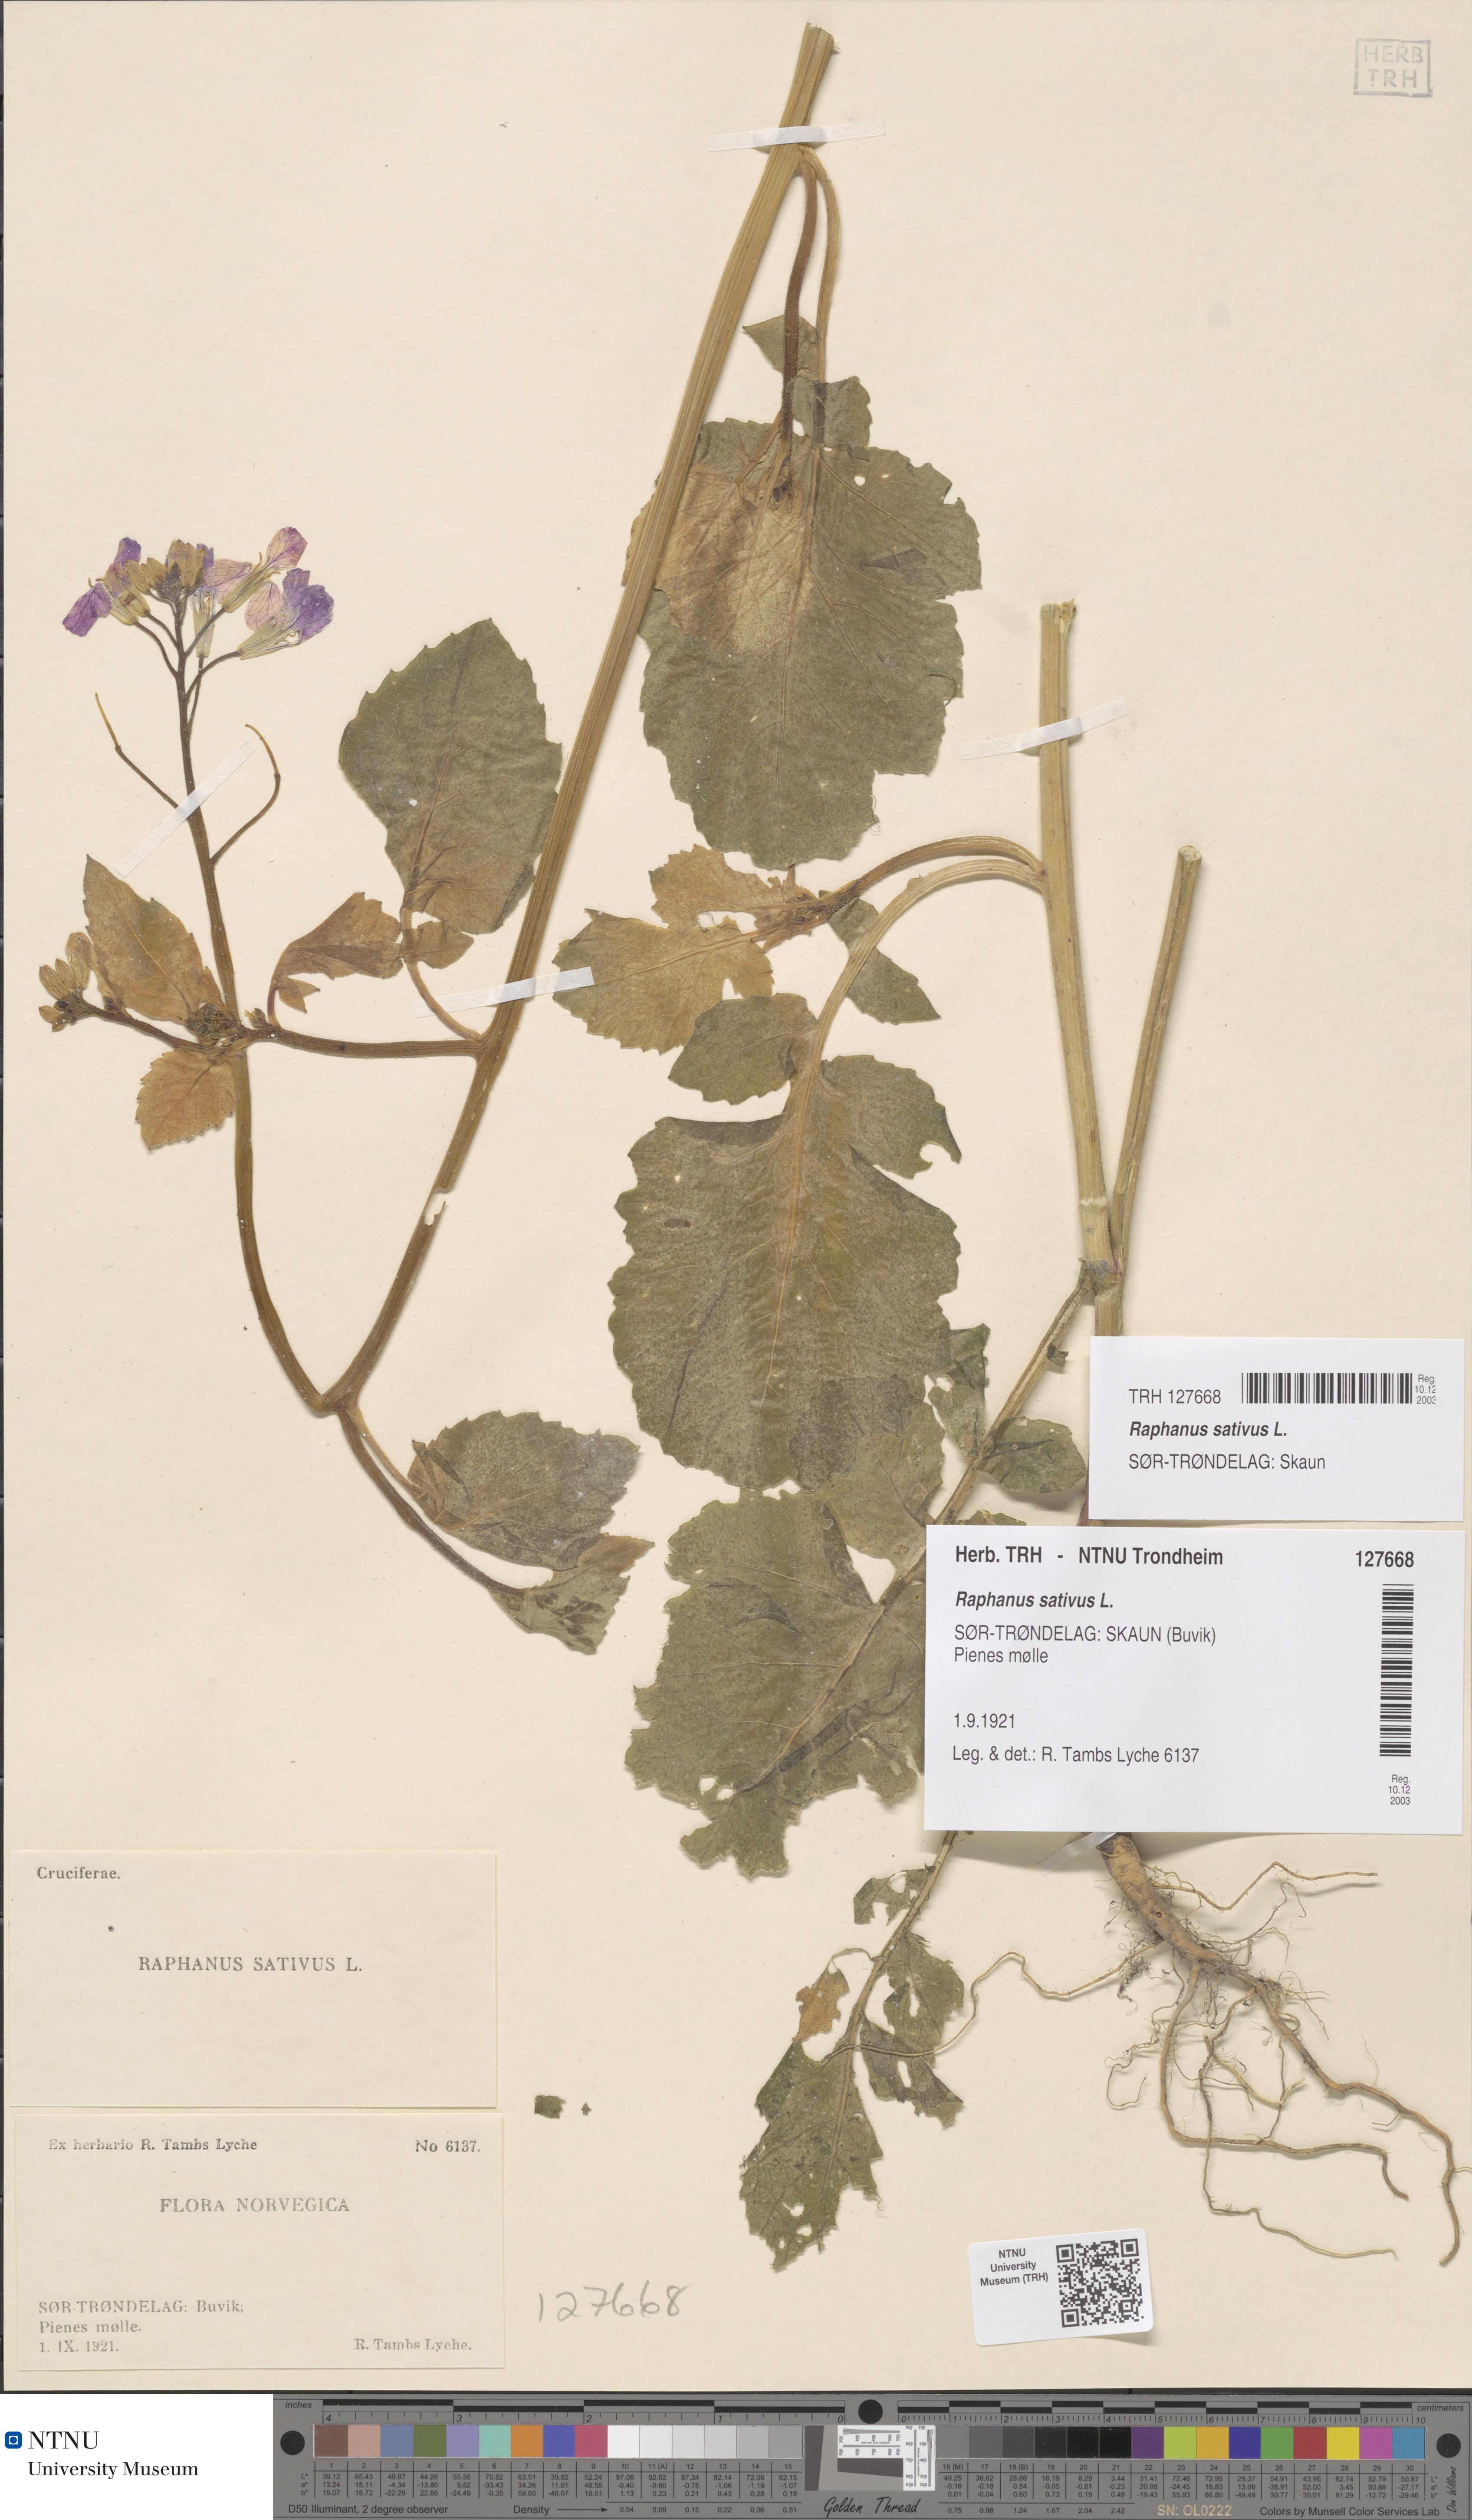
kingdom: Plantae
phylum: Tracheophyta
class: Magnoliopsida
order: Brassicales
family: Brassicaceae
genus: Raphanus
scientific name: Raphanus sativus
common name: Cultivated radish
